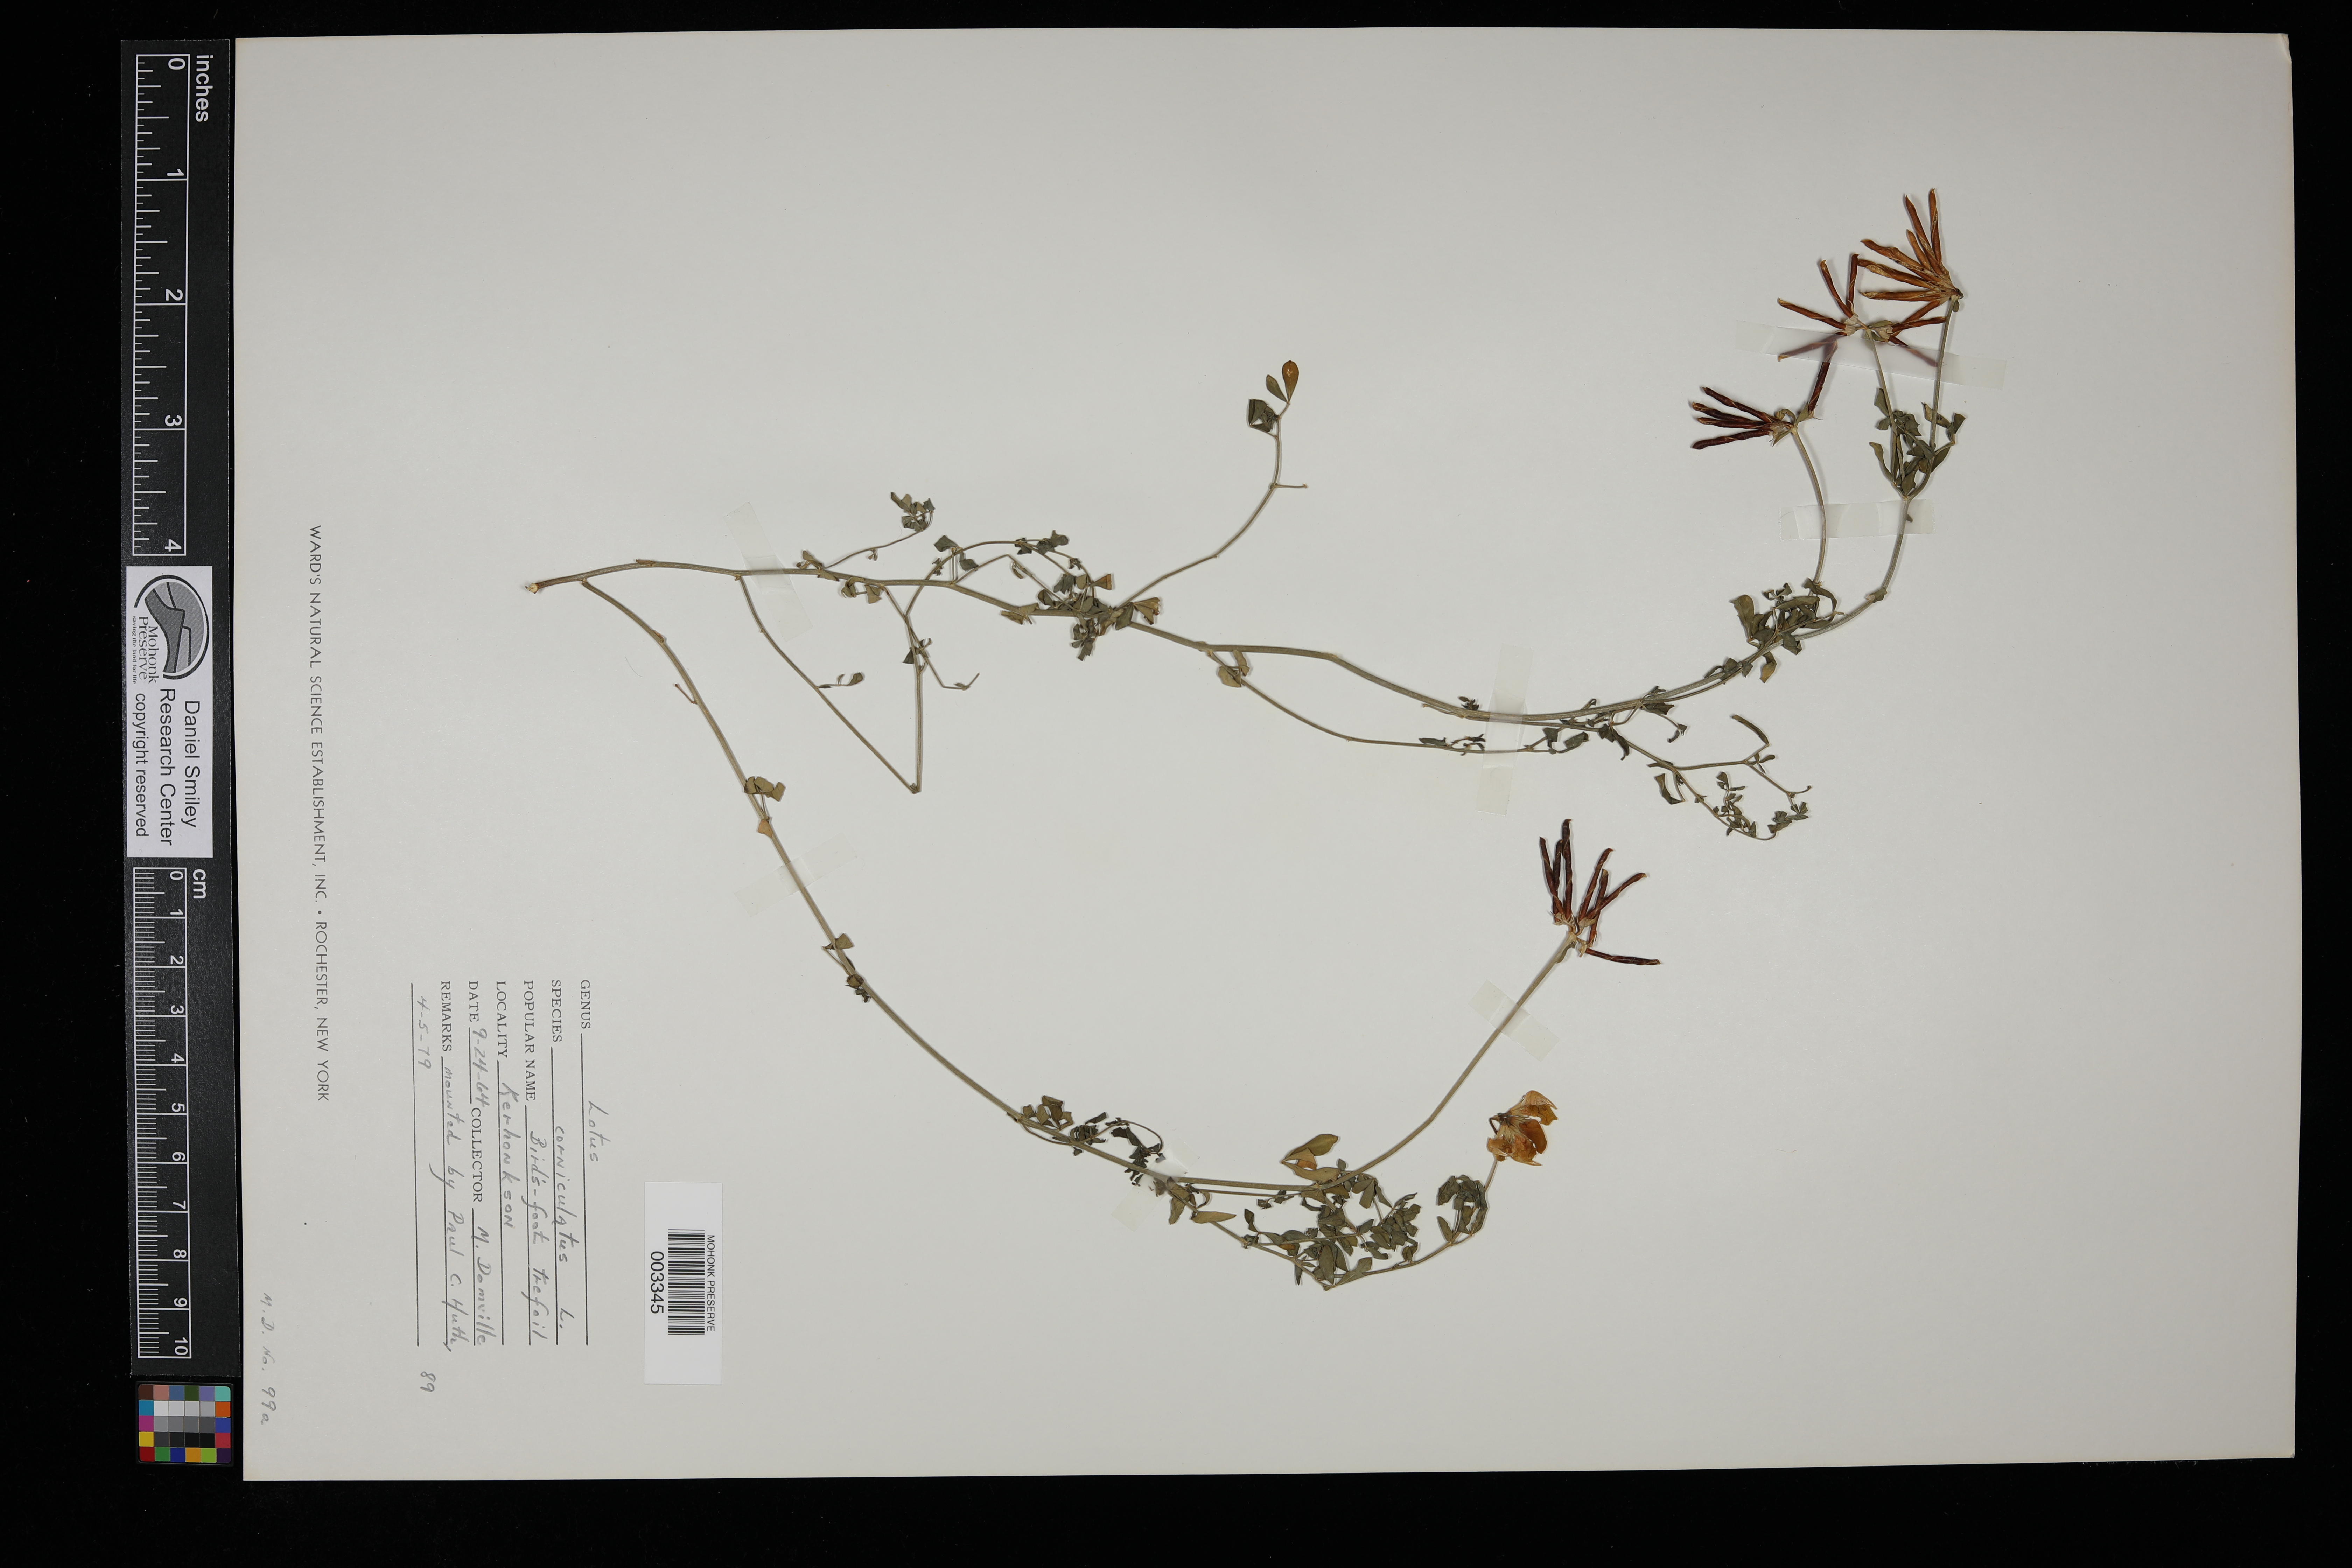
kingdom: Plantae
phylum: Tracheophyta
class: Magnoliopsida
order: Fabales
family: Fabaceae
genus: Lotus
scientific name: Lotus corniculatus
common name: Common bird's-foot-trefoil
